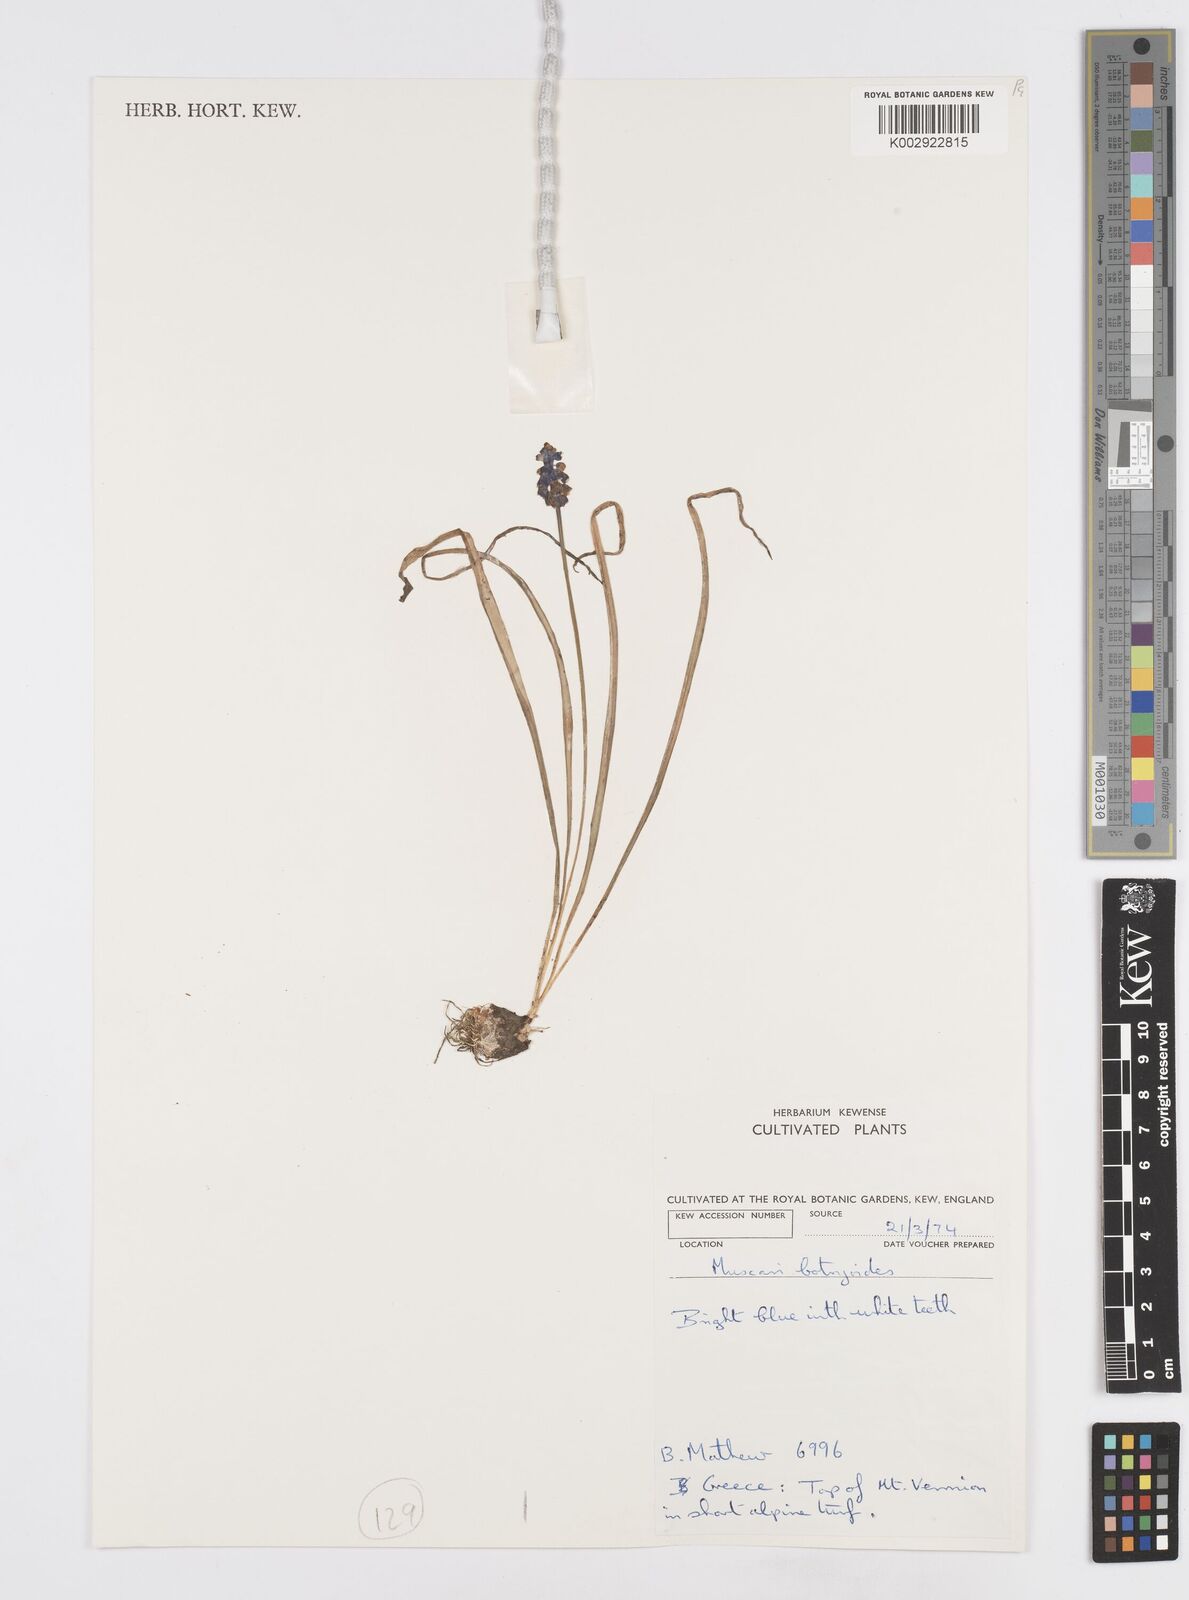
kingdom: Plantae
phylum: Tracheophyta
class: Liliopsida
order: Asparagales
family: Asparagaceae
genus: Muscari
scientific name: Muscari botryoides
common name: Compact grape-hyacinth
